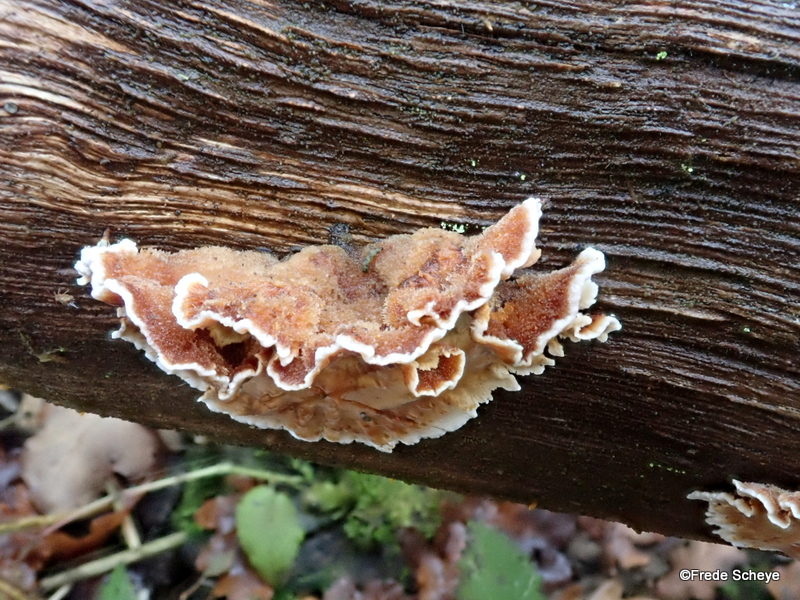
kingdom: Fungi
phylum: Basidiomycota
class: Agaricomycetes
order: Russulales
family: Stereaceae
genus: Stereum
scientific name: Stereum gausapatum
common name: tynd lædersvamp
